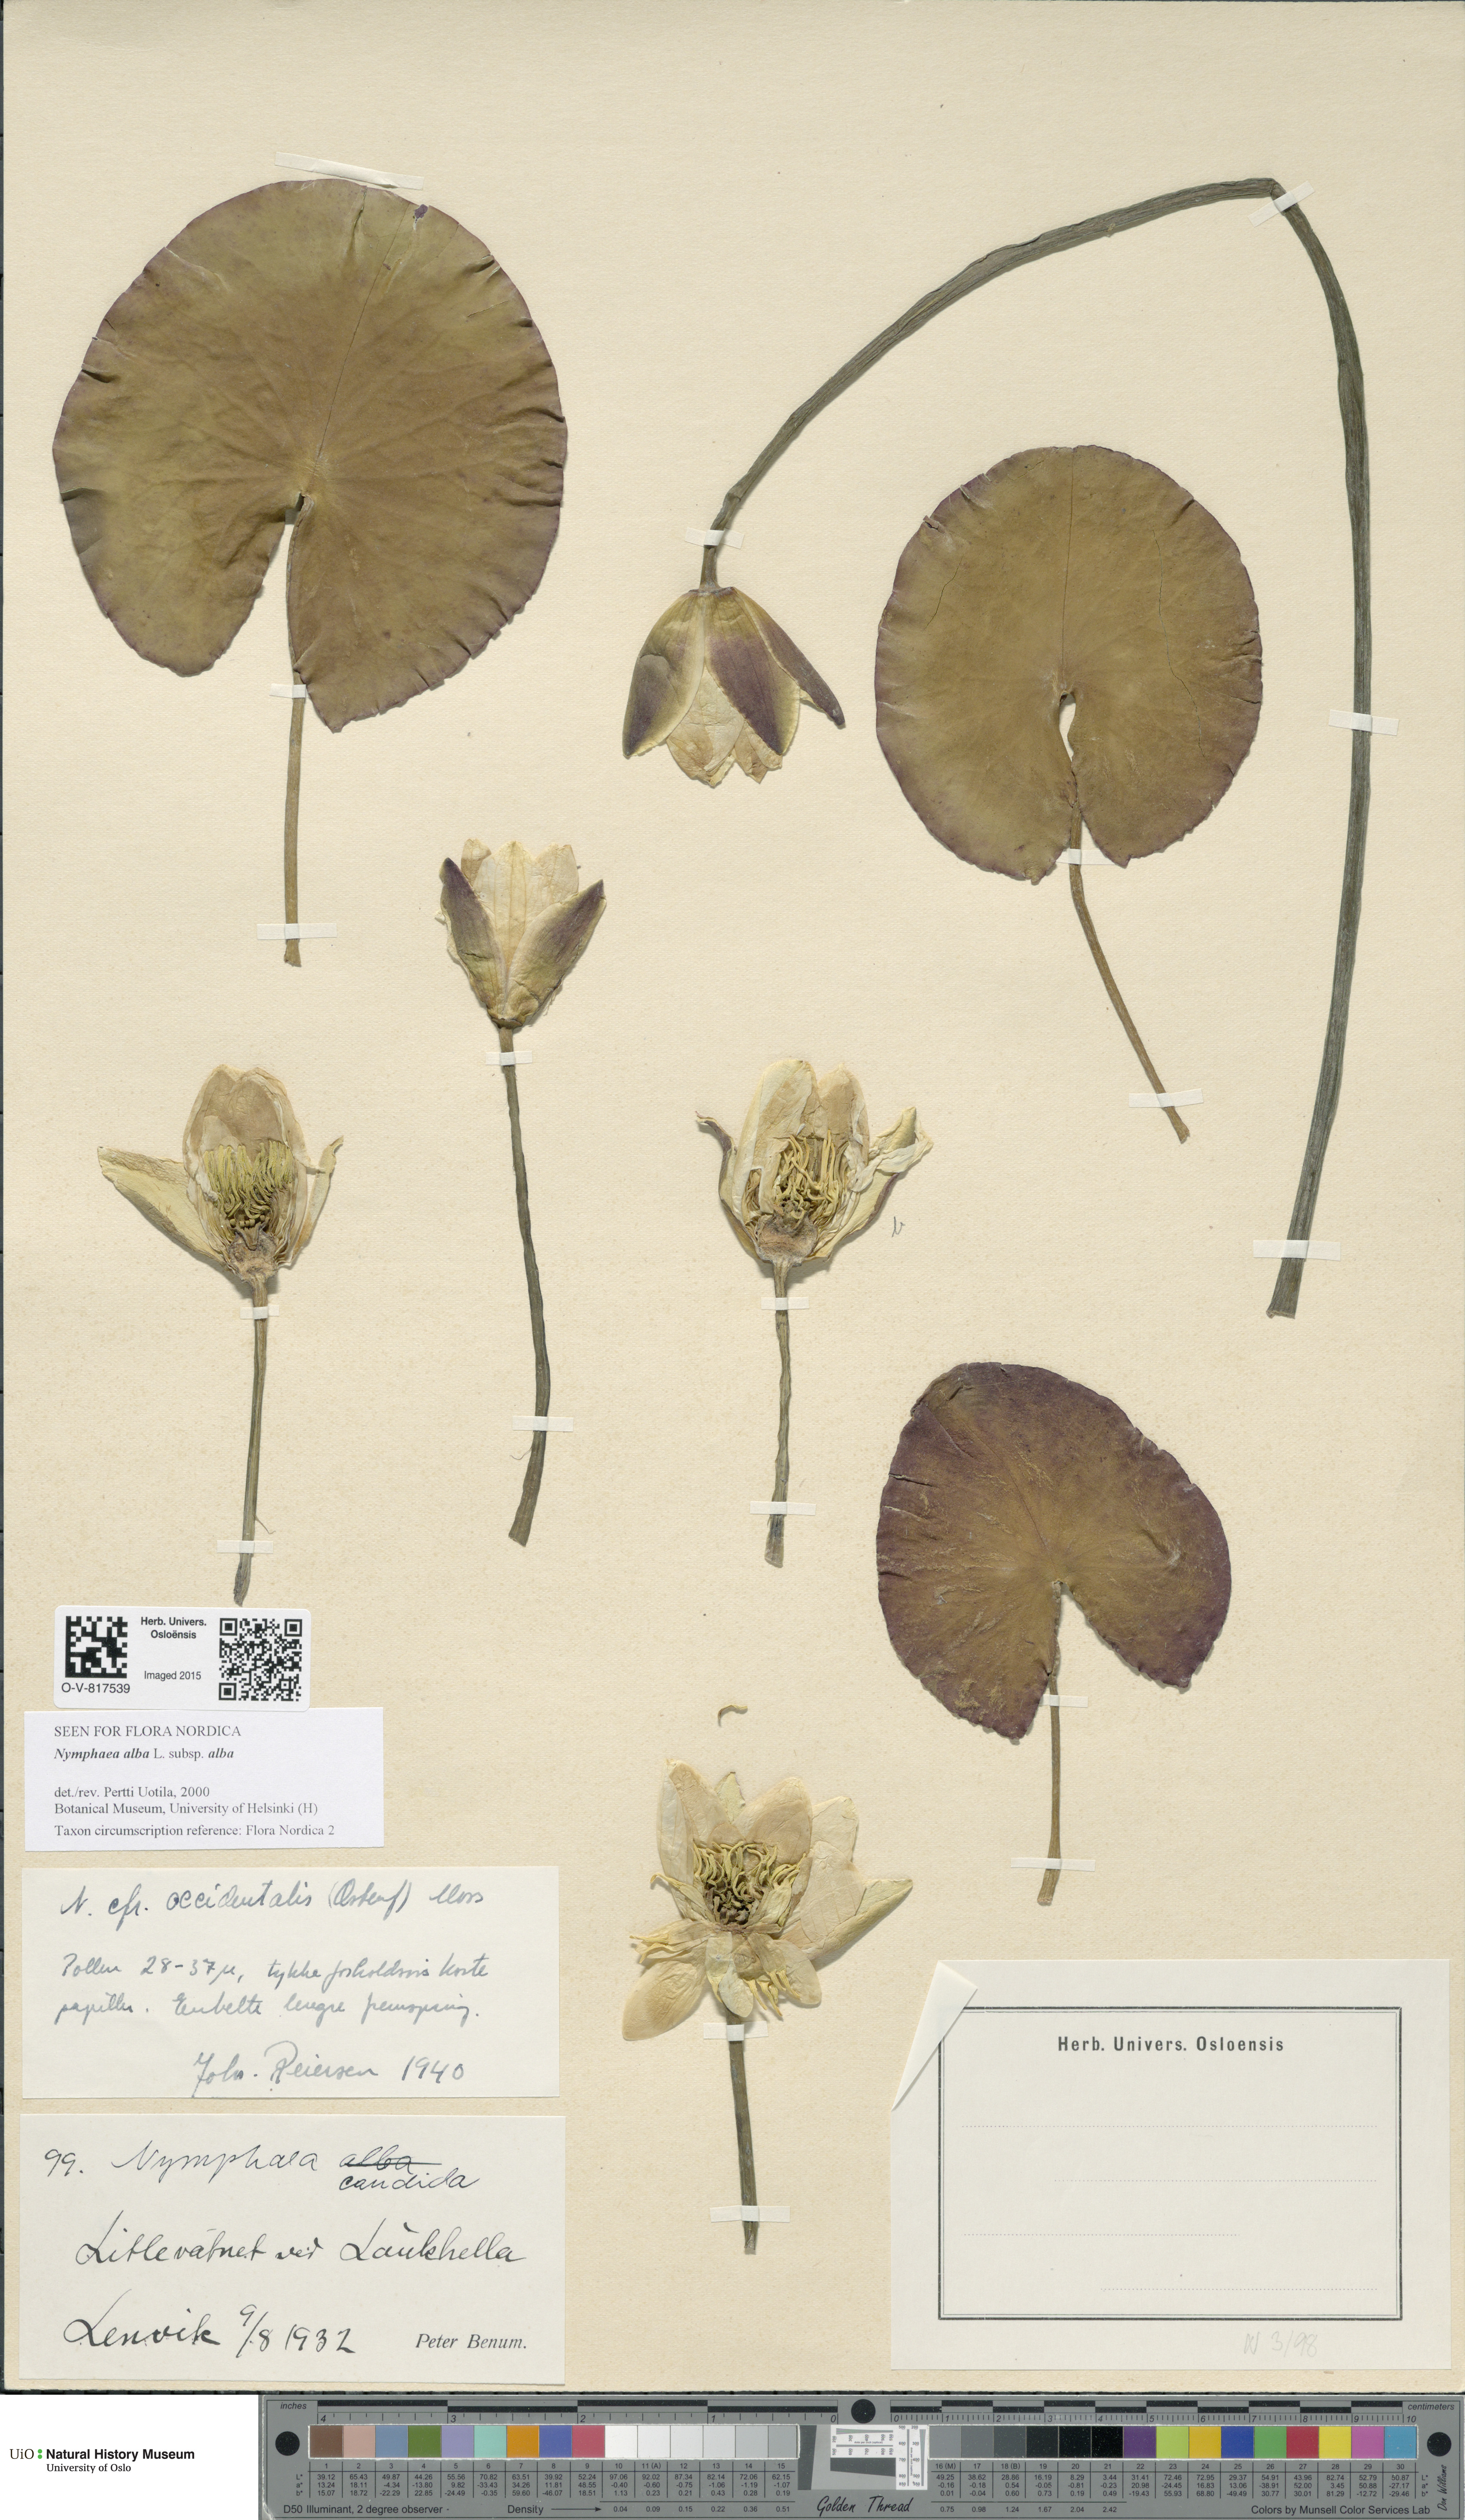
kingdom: Plantae
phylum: Tracheophyta
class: Magnoliopsida
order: Nymphaeales
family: Nymphaeaceae
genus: Nymphaea
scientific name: Nymphaea alba
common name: White water-lily
